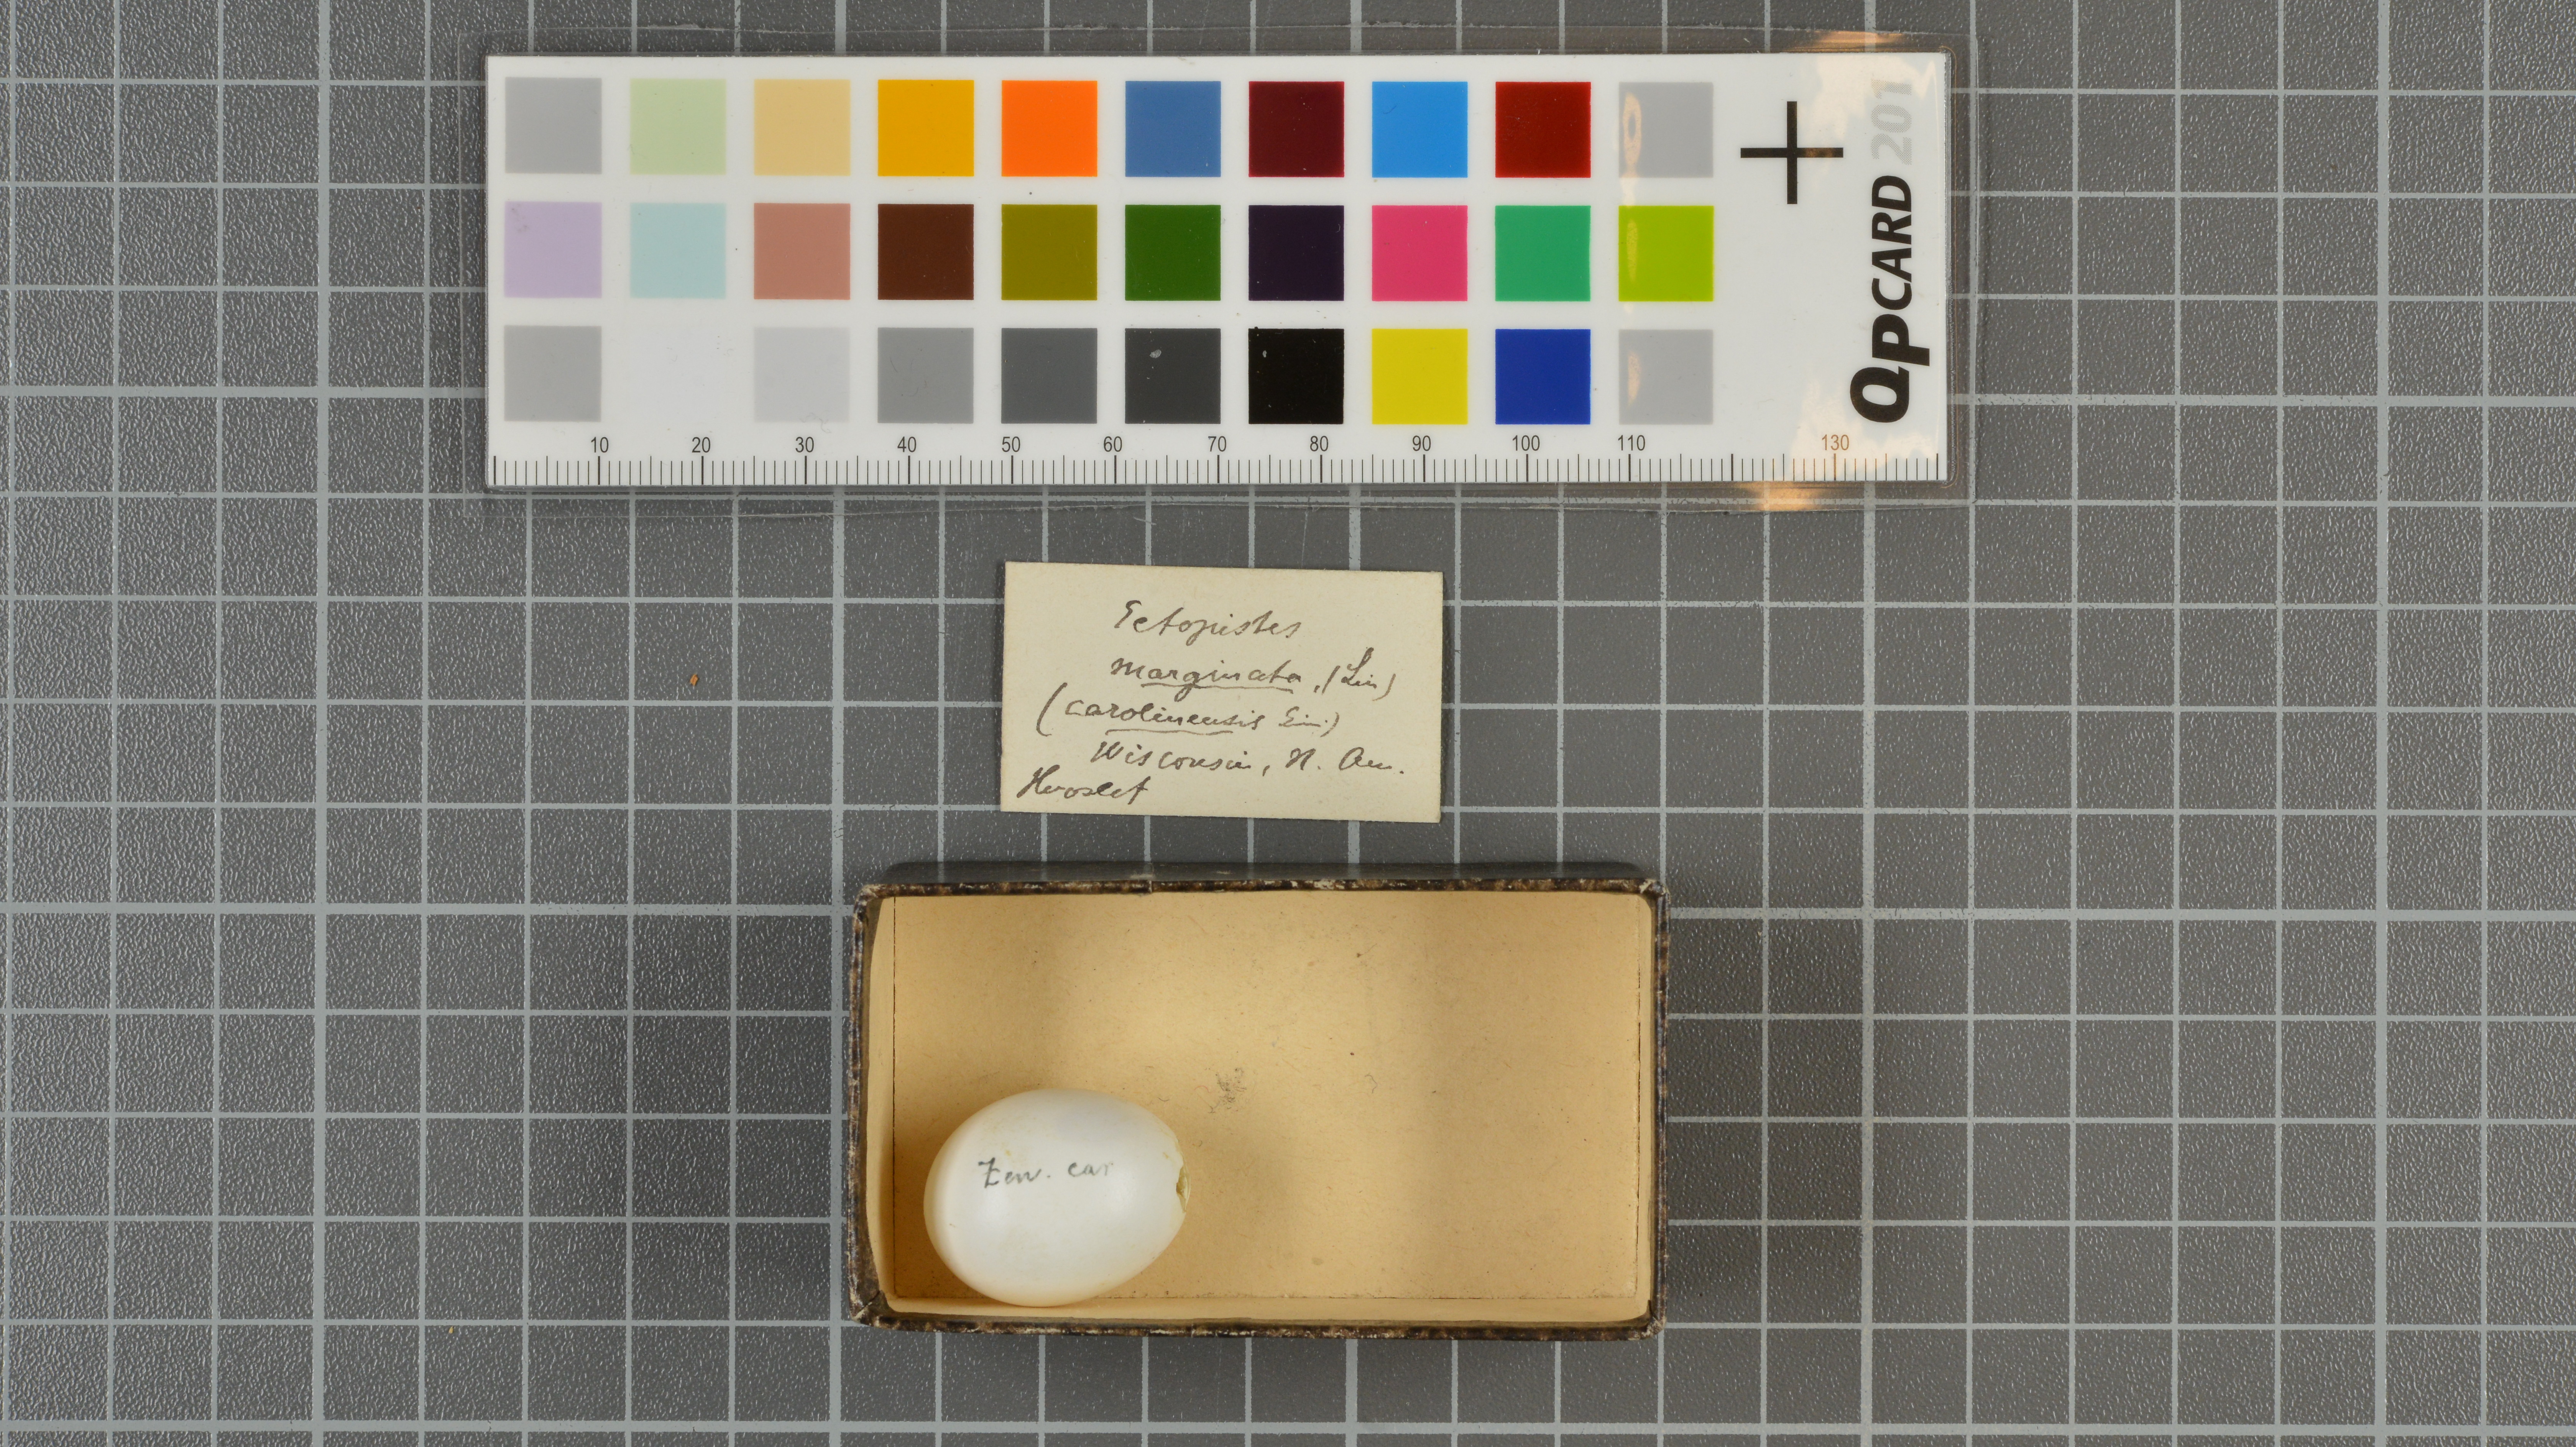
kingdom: Animalia
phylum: Chordata
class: Aves
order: Columbiformes
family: Columbidae
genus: Zenaida
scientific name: Zenaida macroura
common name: Mourning dove
